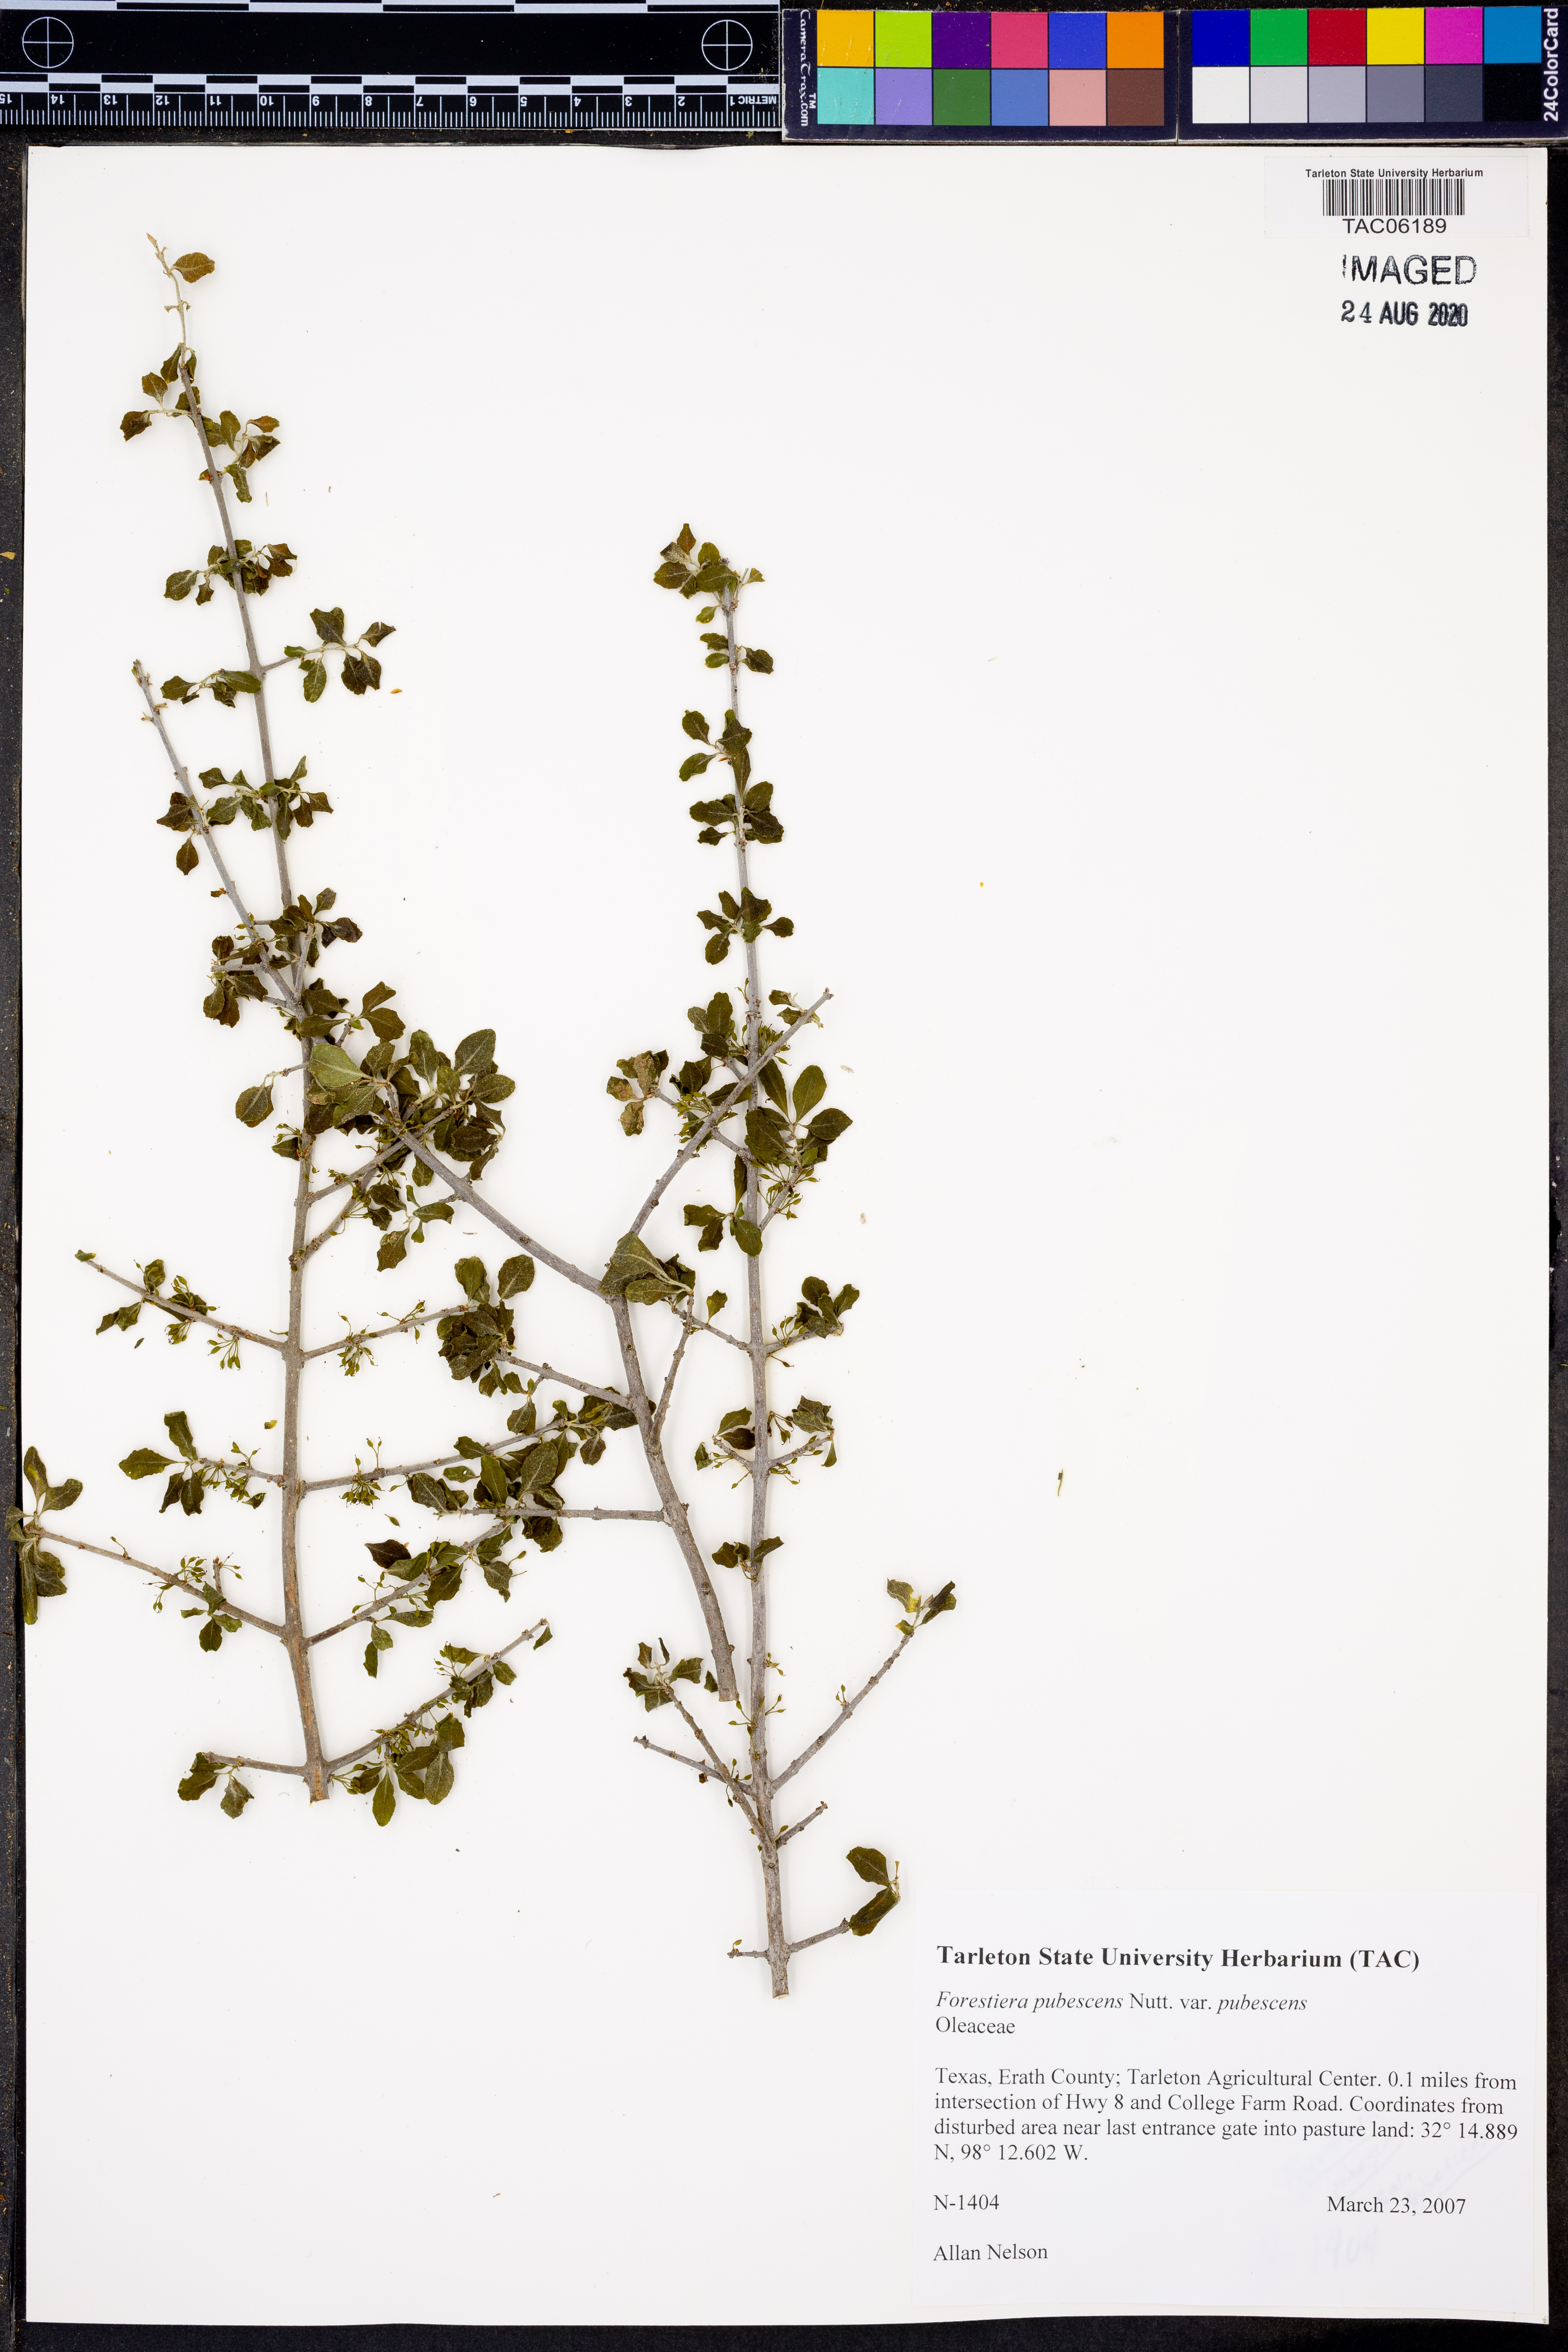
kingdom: Plantae
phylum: Tracheophyta
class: Magnoliopsida
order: Lamiales
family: Oleaceae
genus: Forestiera
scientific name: Forestiera pubescens
